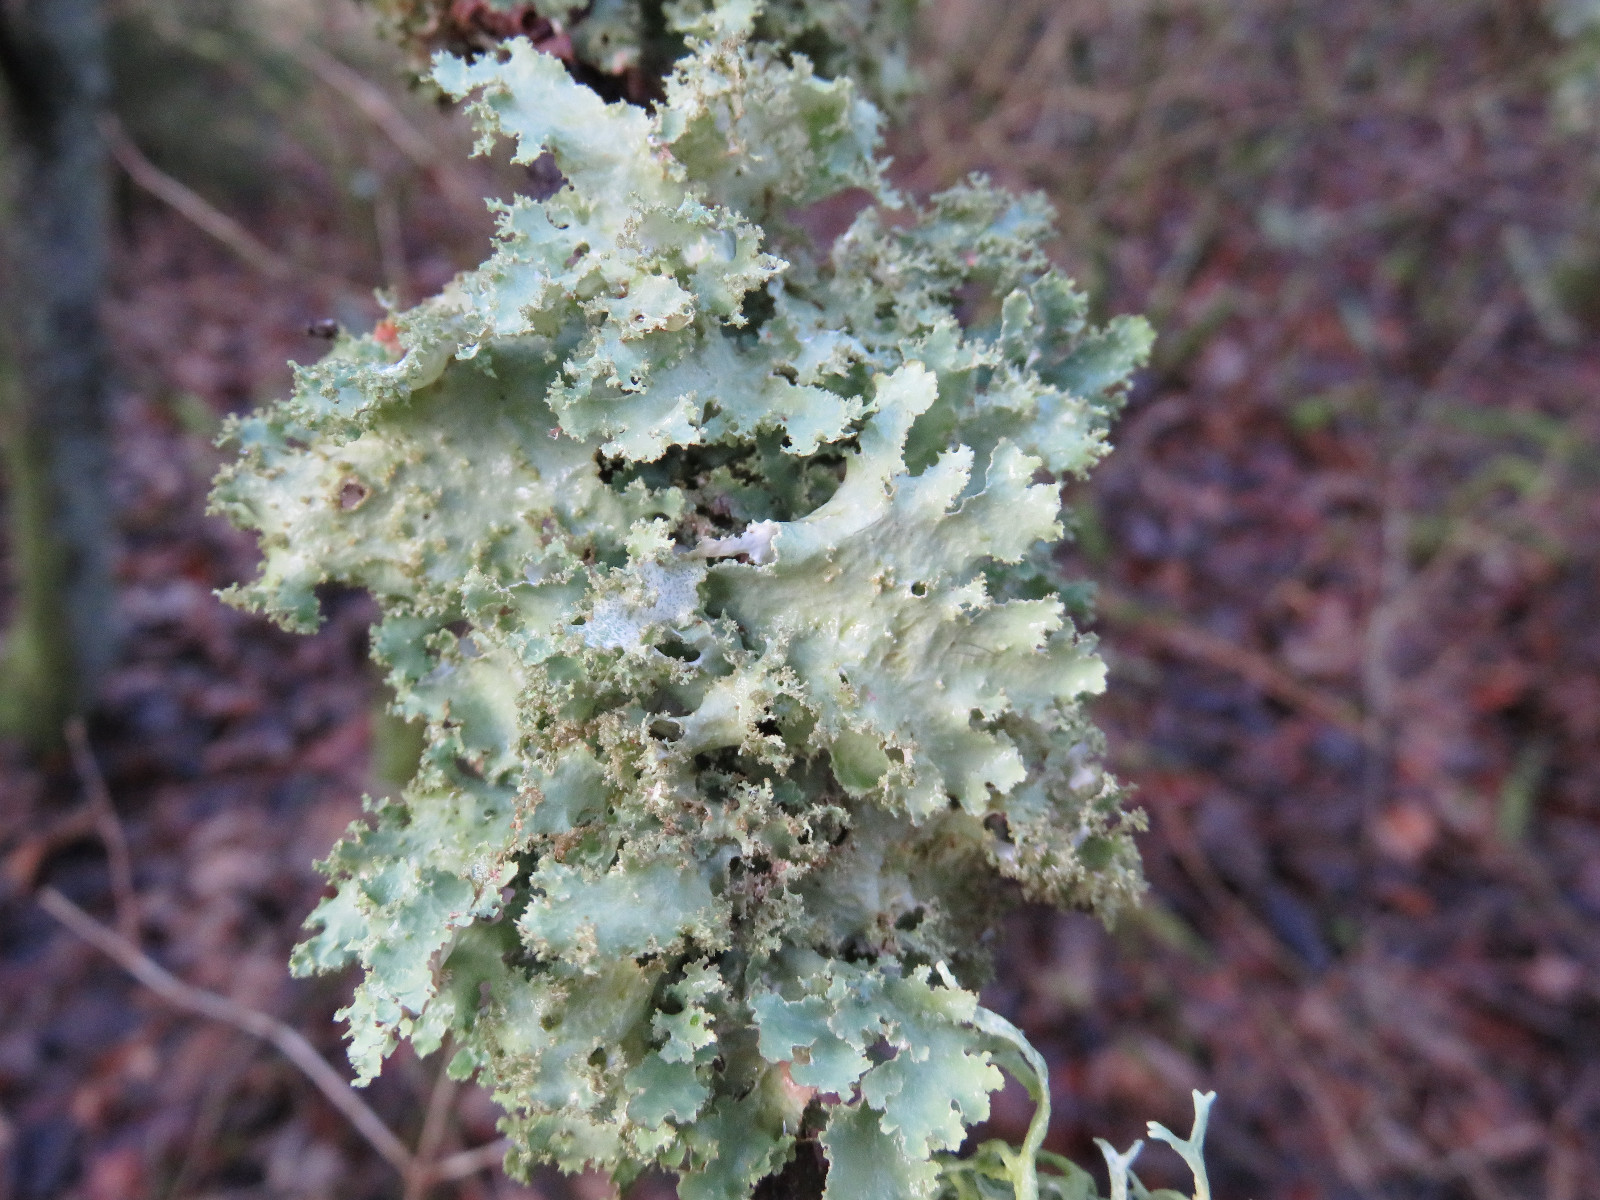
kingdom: Fungi
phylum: Ascomycota
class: Lecanoromycetes
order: Lecanorales
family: Parmeliaceae
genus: Platismatia
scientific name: Platismatia glauca
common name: blågrå papirlav
